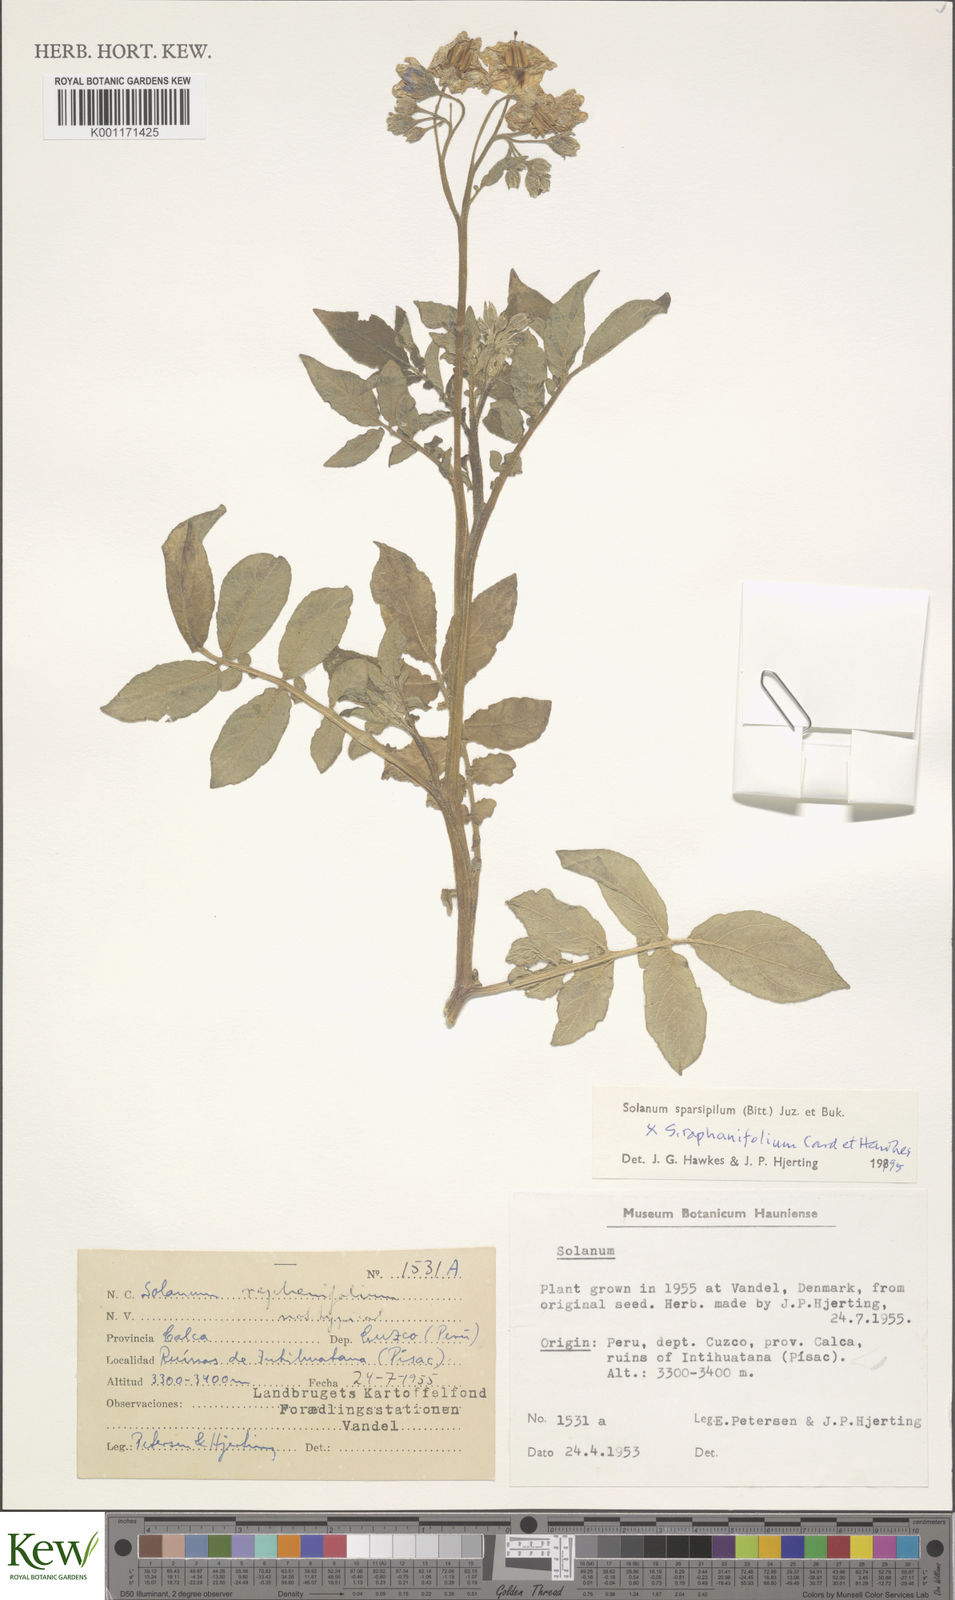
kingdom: Plantae
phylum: Tracheophyta
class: Magnoliopsida
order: Solanales
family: Solanaceae
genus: Solanum
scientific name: Solanum brevicaule
